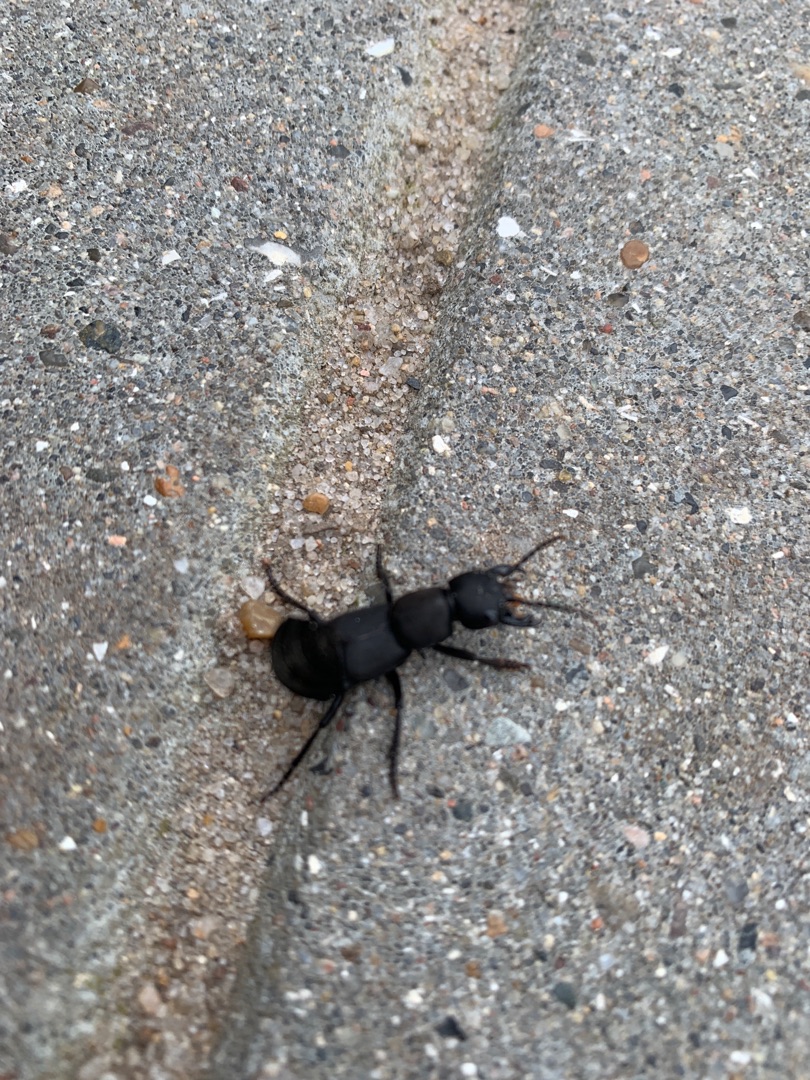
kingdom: Animalia
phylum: Arthropoda
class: Insecta
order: Coleoptera
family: Staphylinidae
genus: Ocypus
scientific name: Ocypus olens
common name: Stor rovbille
